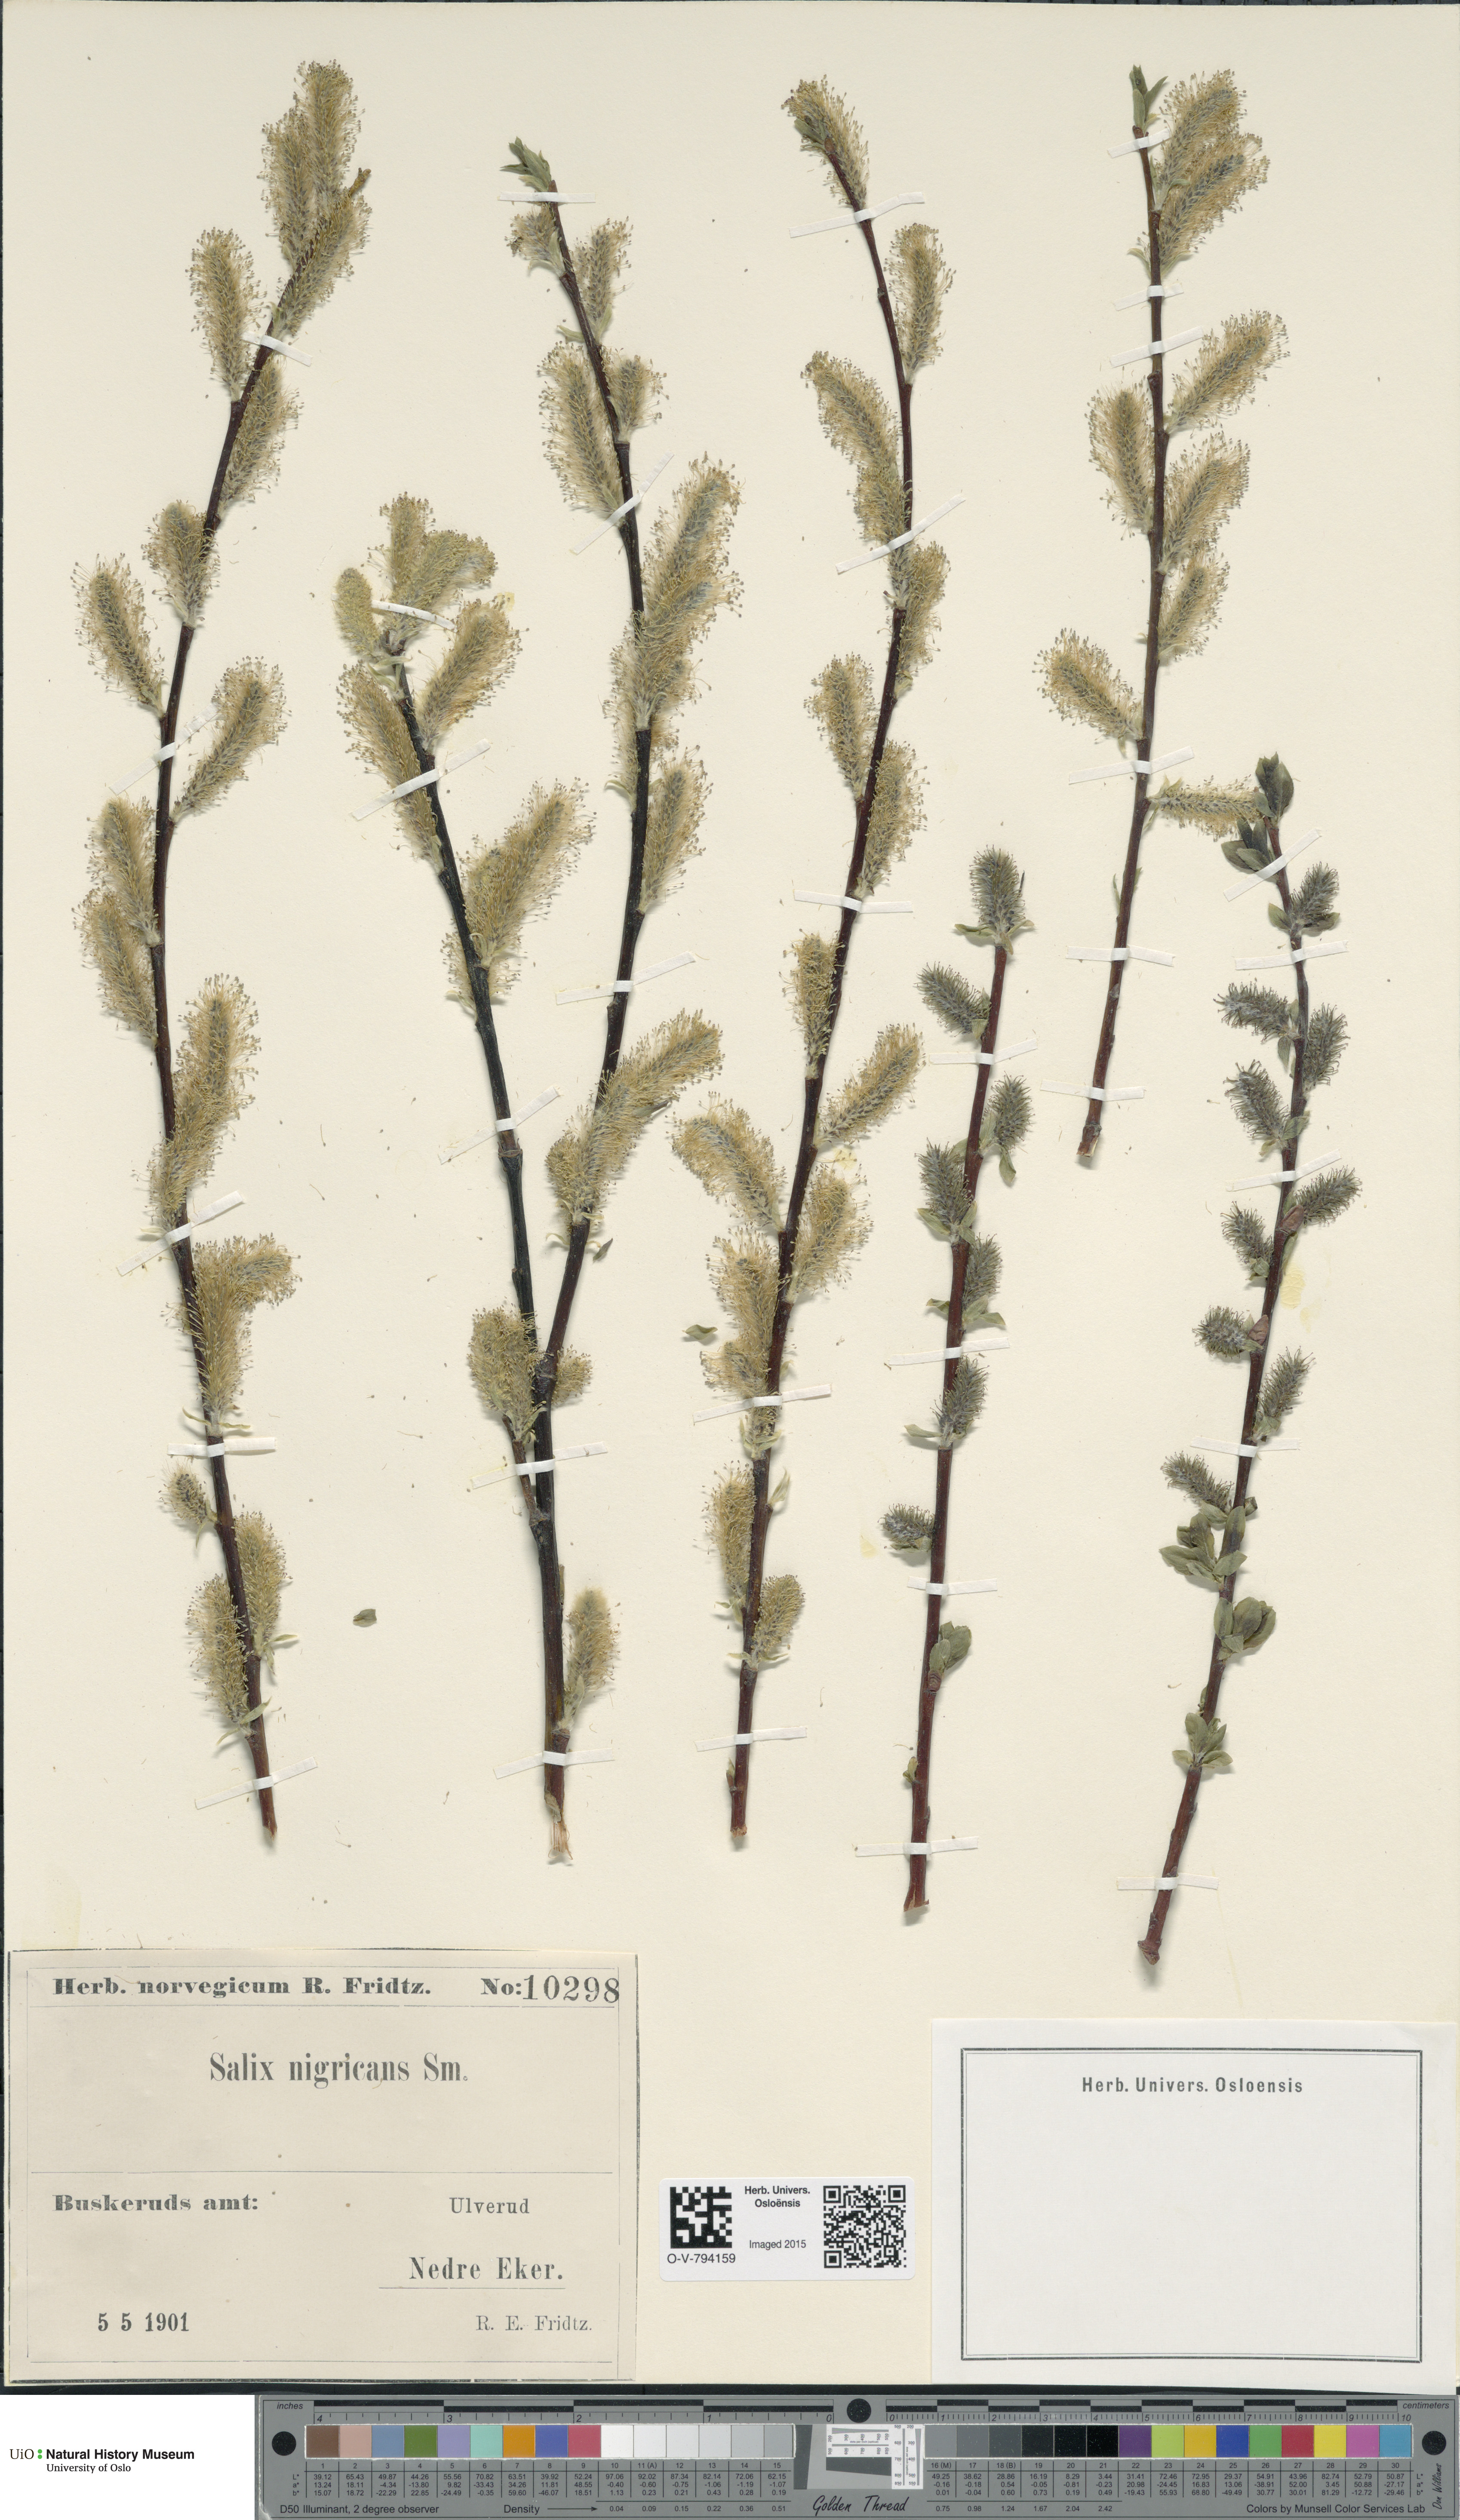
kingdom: Plantae
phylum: Tracheophyta
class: Magnoliopsida
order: Malpighiales
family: Salicaceae
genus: Salix
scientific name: Salix myrsinifolia
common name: Dark-leaved willow
